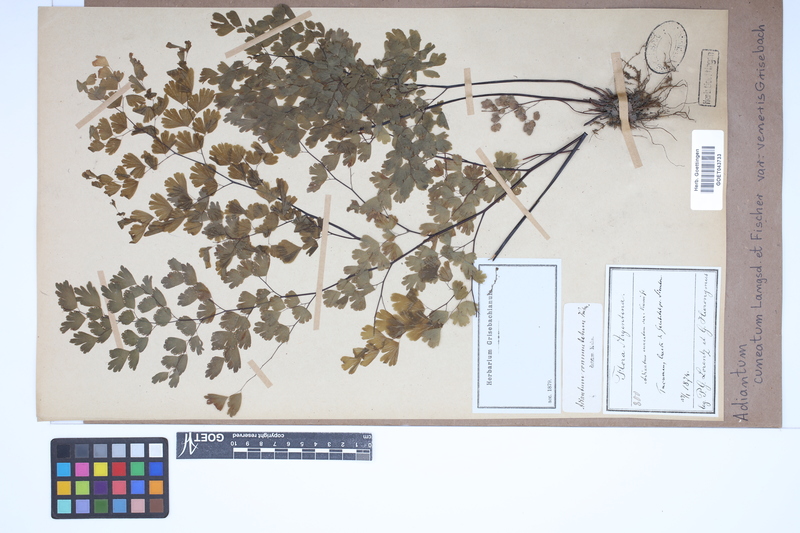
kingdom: Plantae
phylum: Tracheophyta
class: Polypodiopsida
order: Polypodiales
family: Pteridaceae
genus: Adiantum
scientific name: Adiantum lorentzii
